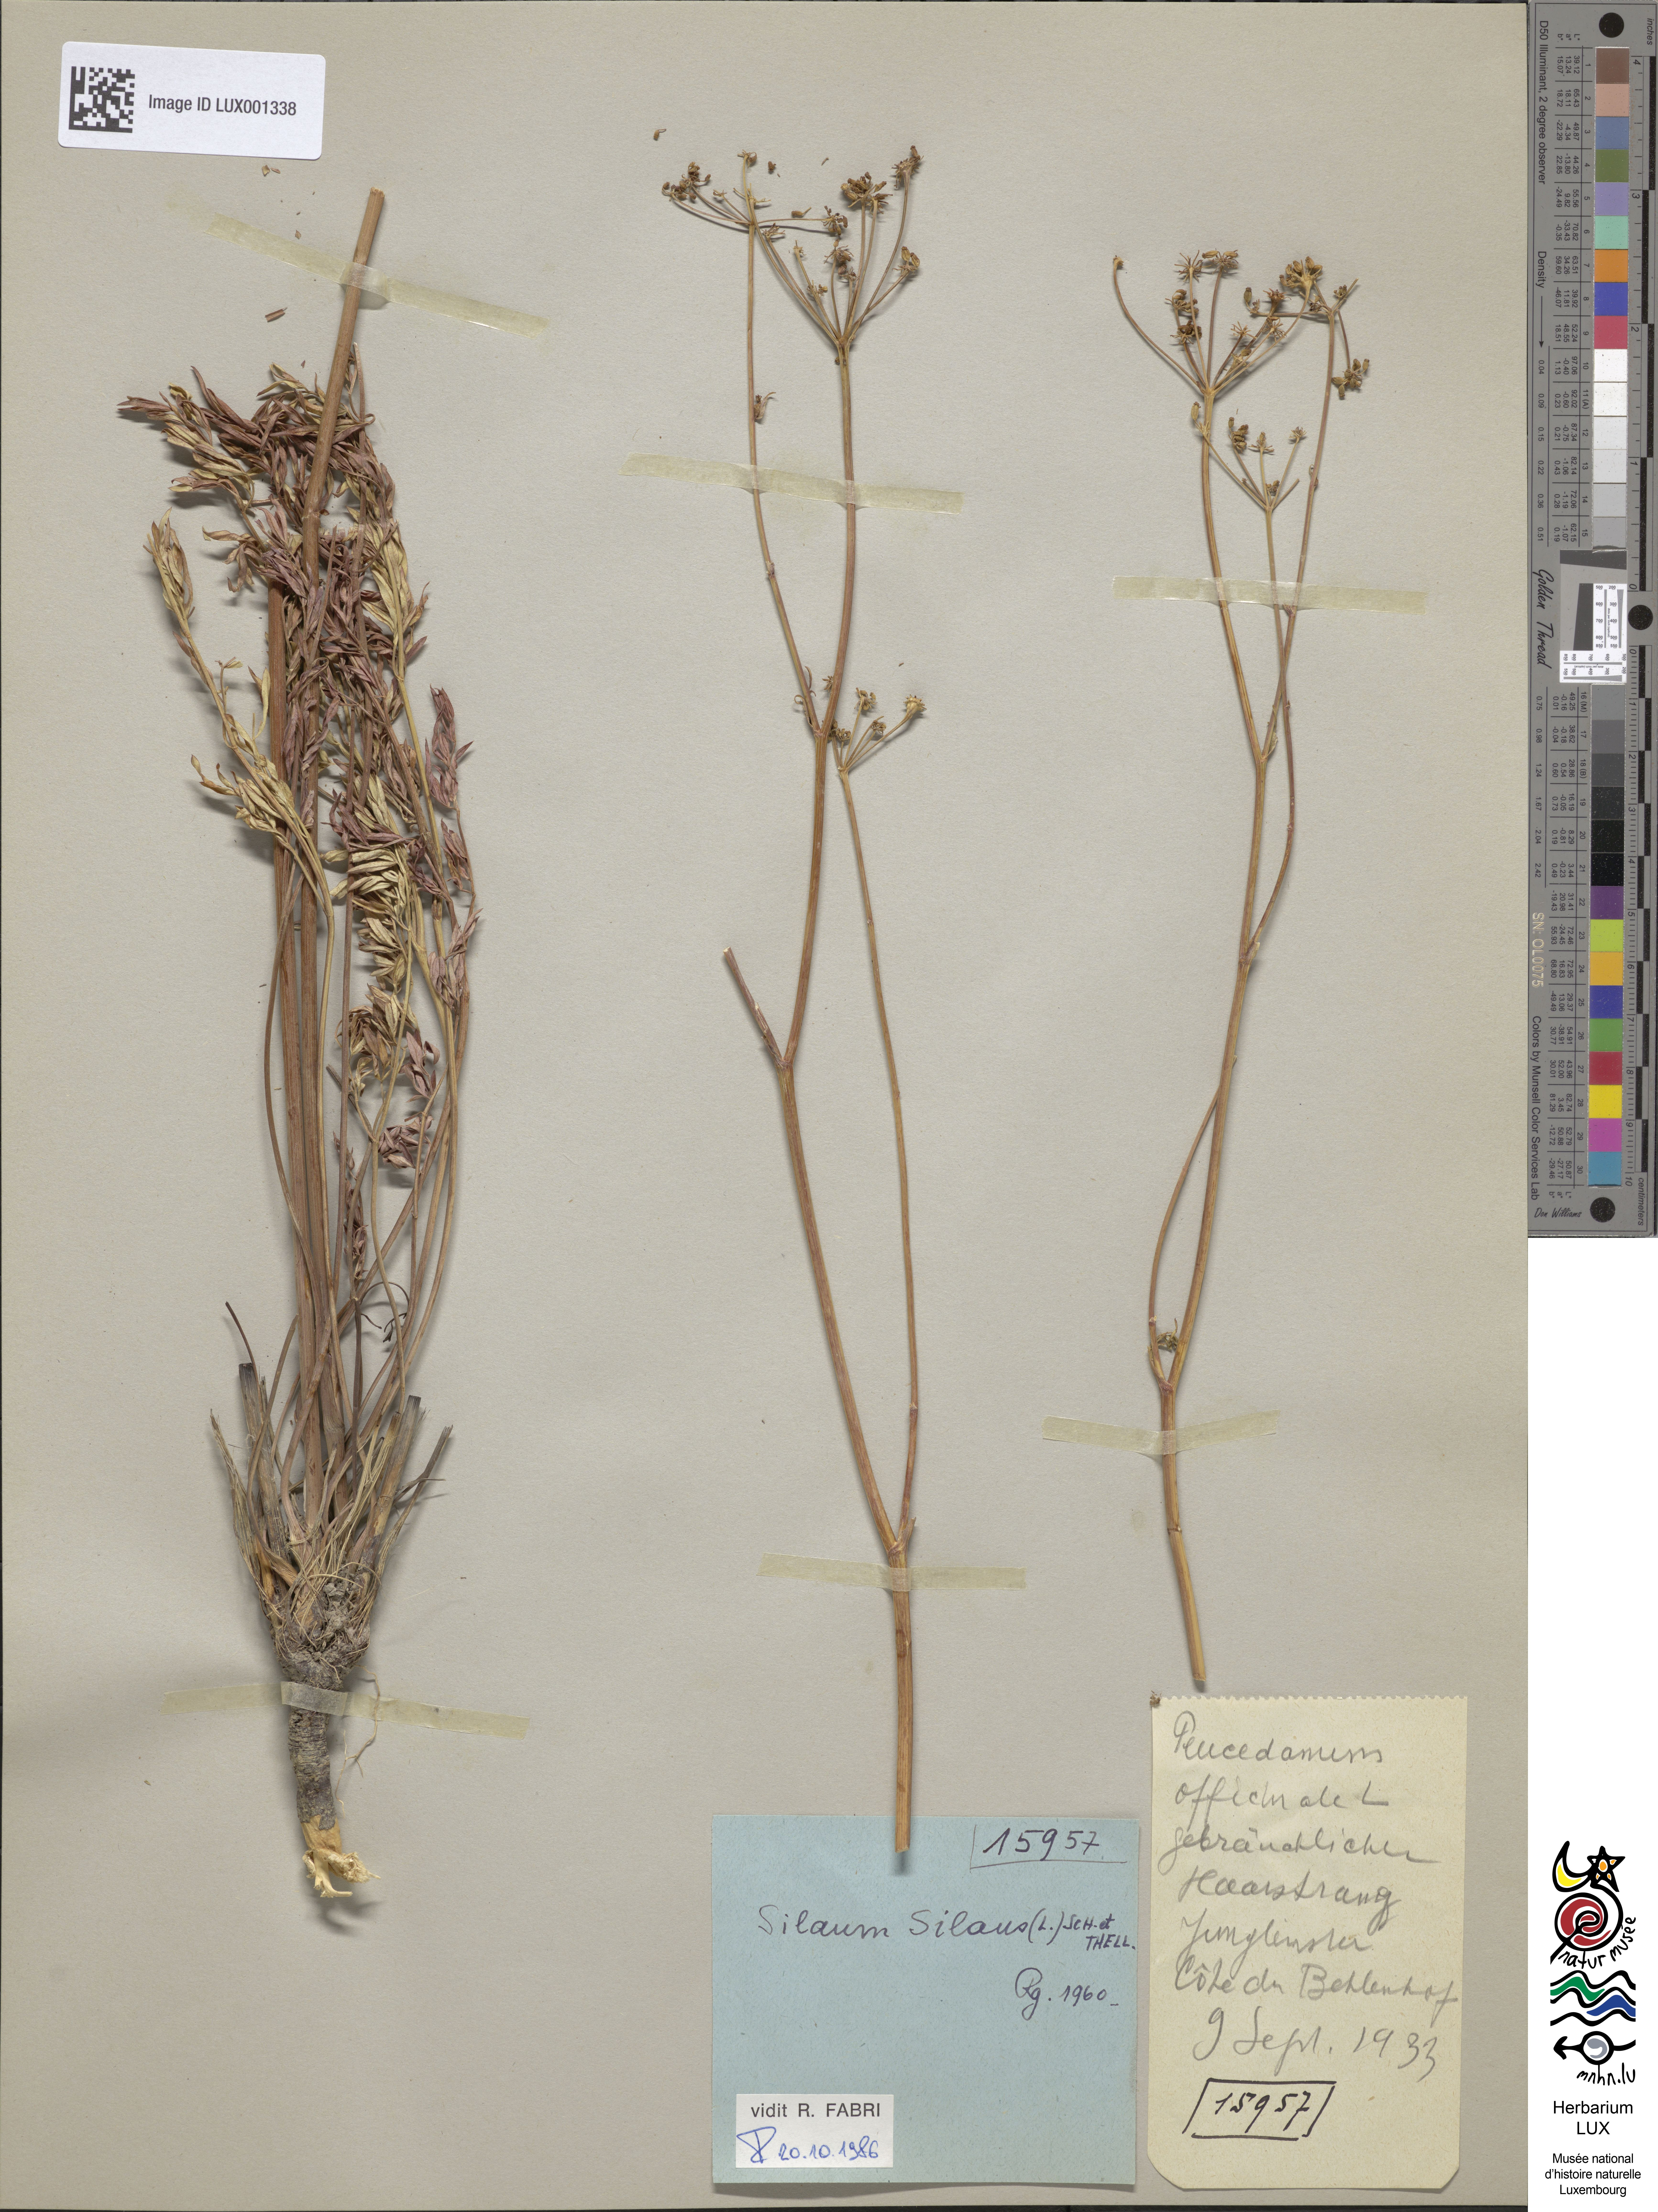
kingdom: Plantae
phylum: Tracheophyta
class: Magnoliopsida
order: Apiales
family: Apiaceae
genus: Silaum
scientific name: Silaum silaus
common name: Pepper-saxifrage
